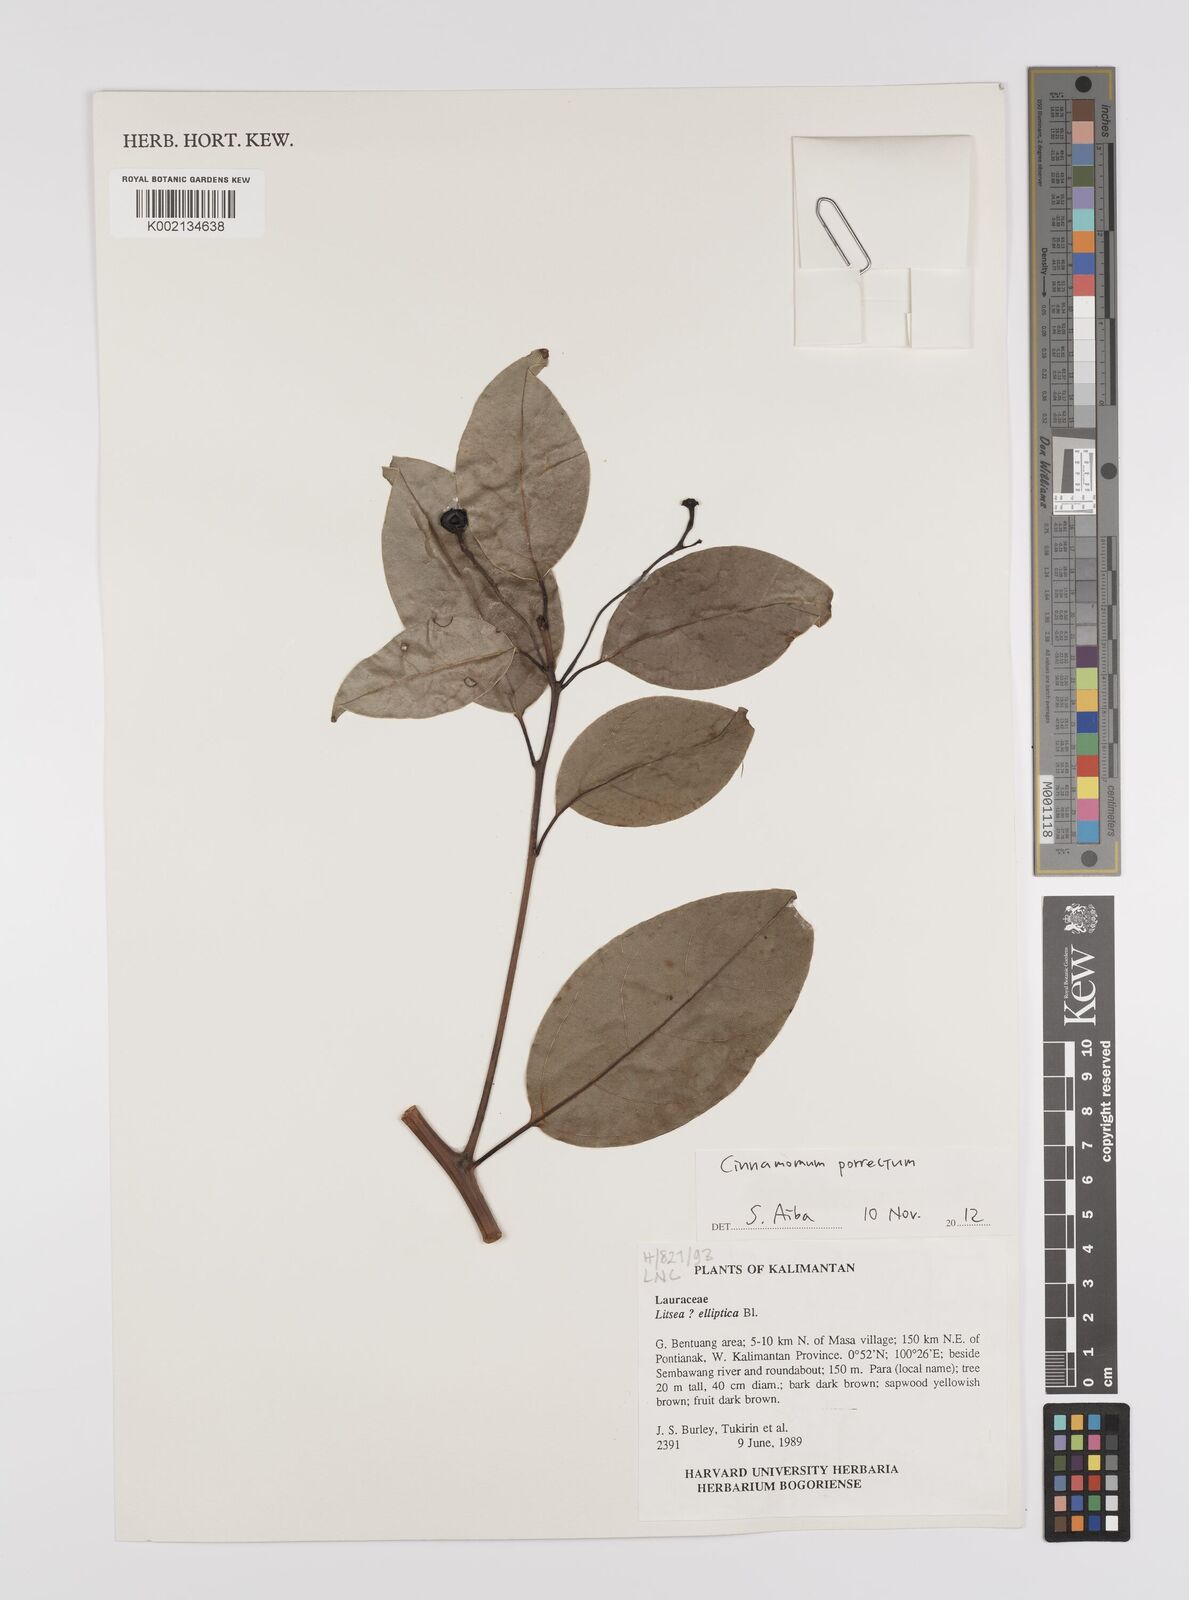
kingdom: Plantae
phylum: Tracheophyta
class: Magnoliopsida
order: Laurales
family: Lauraceae
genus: Cinnamomum
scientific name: Cinnamomum parthenoxylon
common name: Martaban camphor wood
